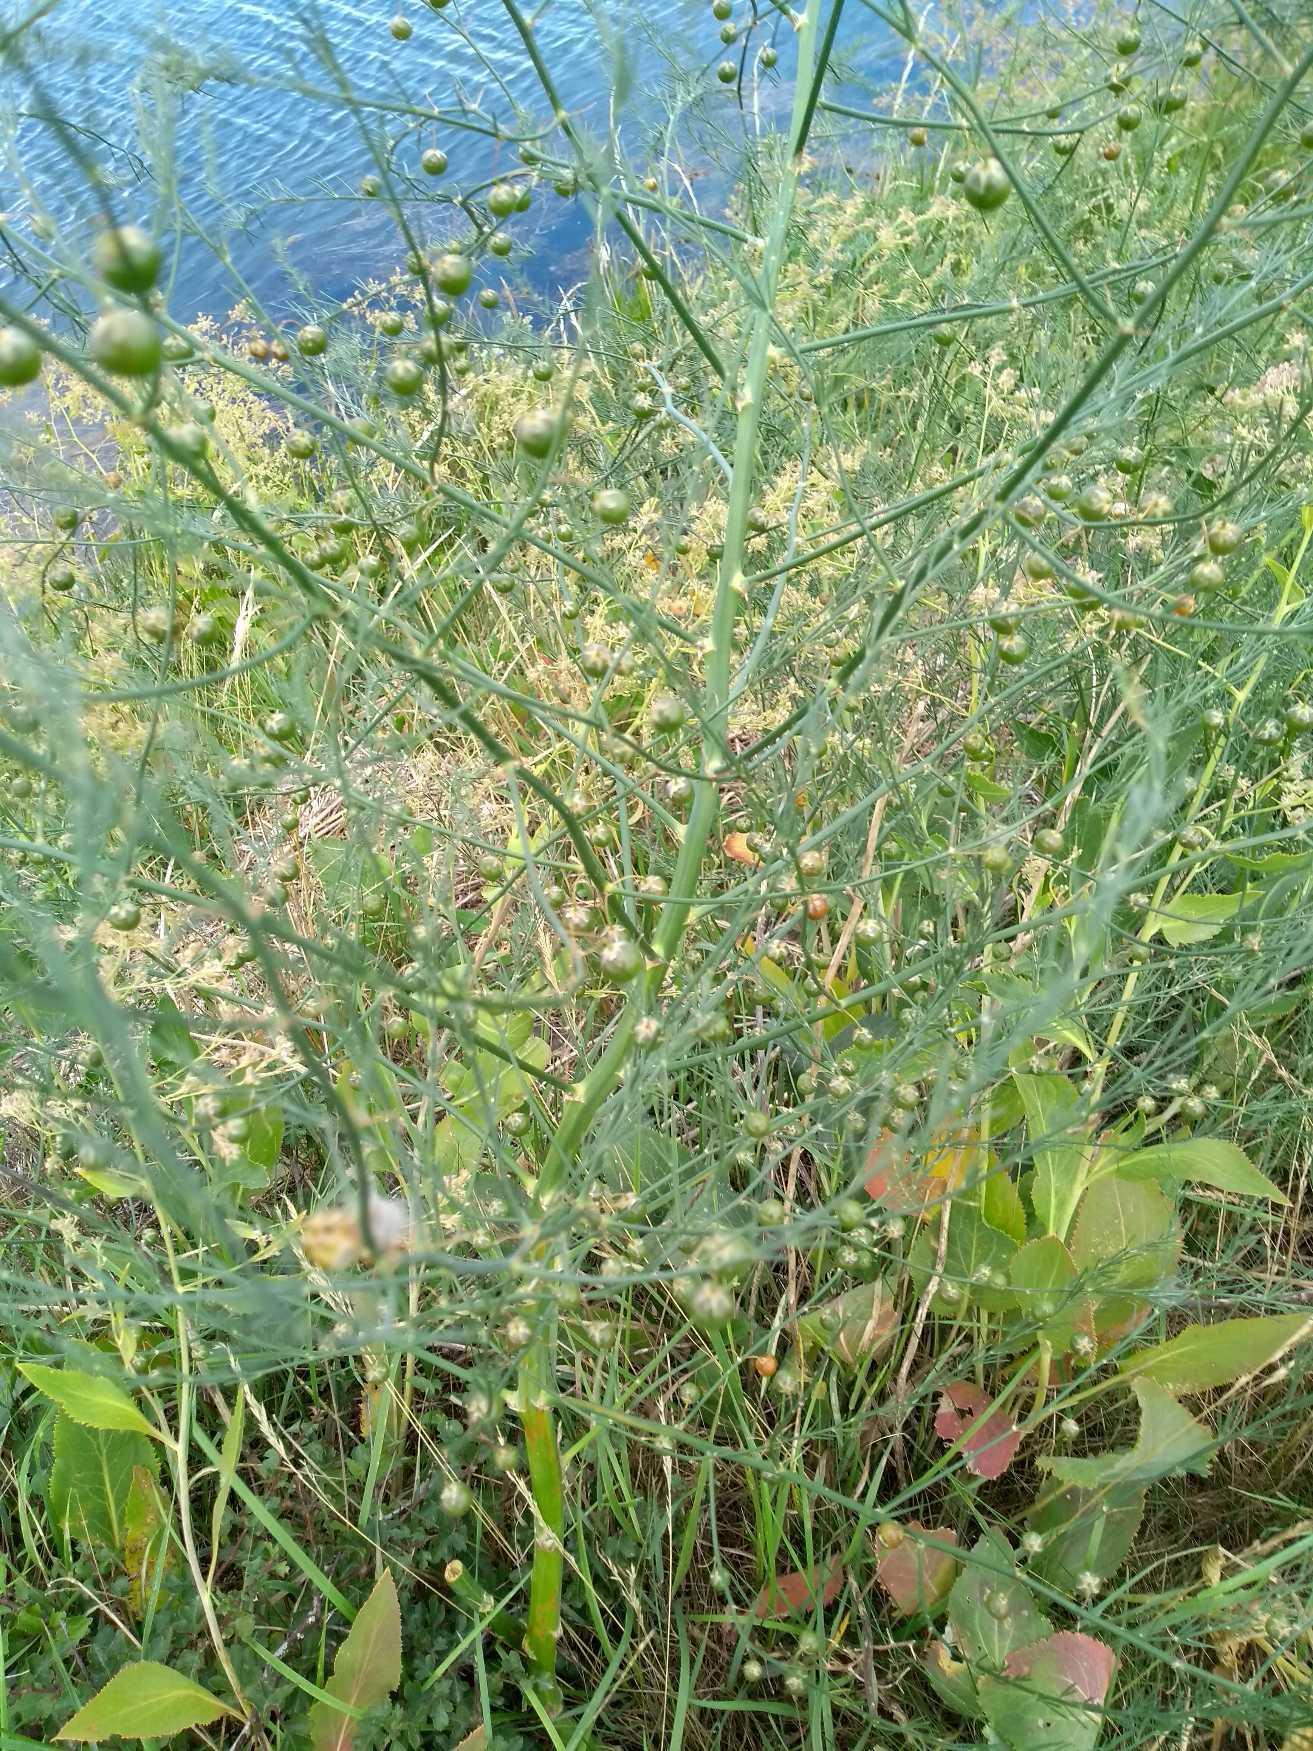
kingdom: Plantae
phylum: Tracheophyta
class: Liliopsida
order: Asparagales
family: Asparagaceae
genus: Asparagus
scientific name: Asparagus officinalis
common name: Asparges
